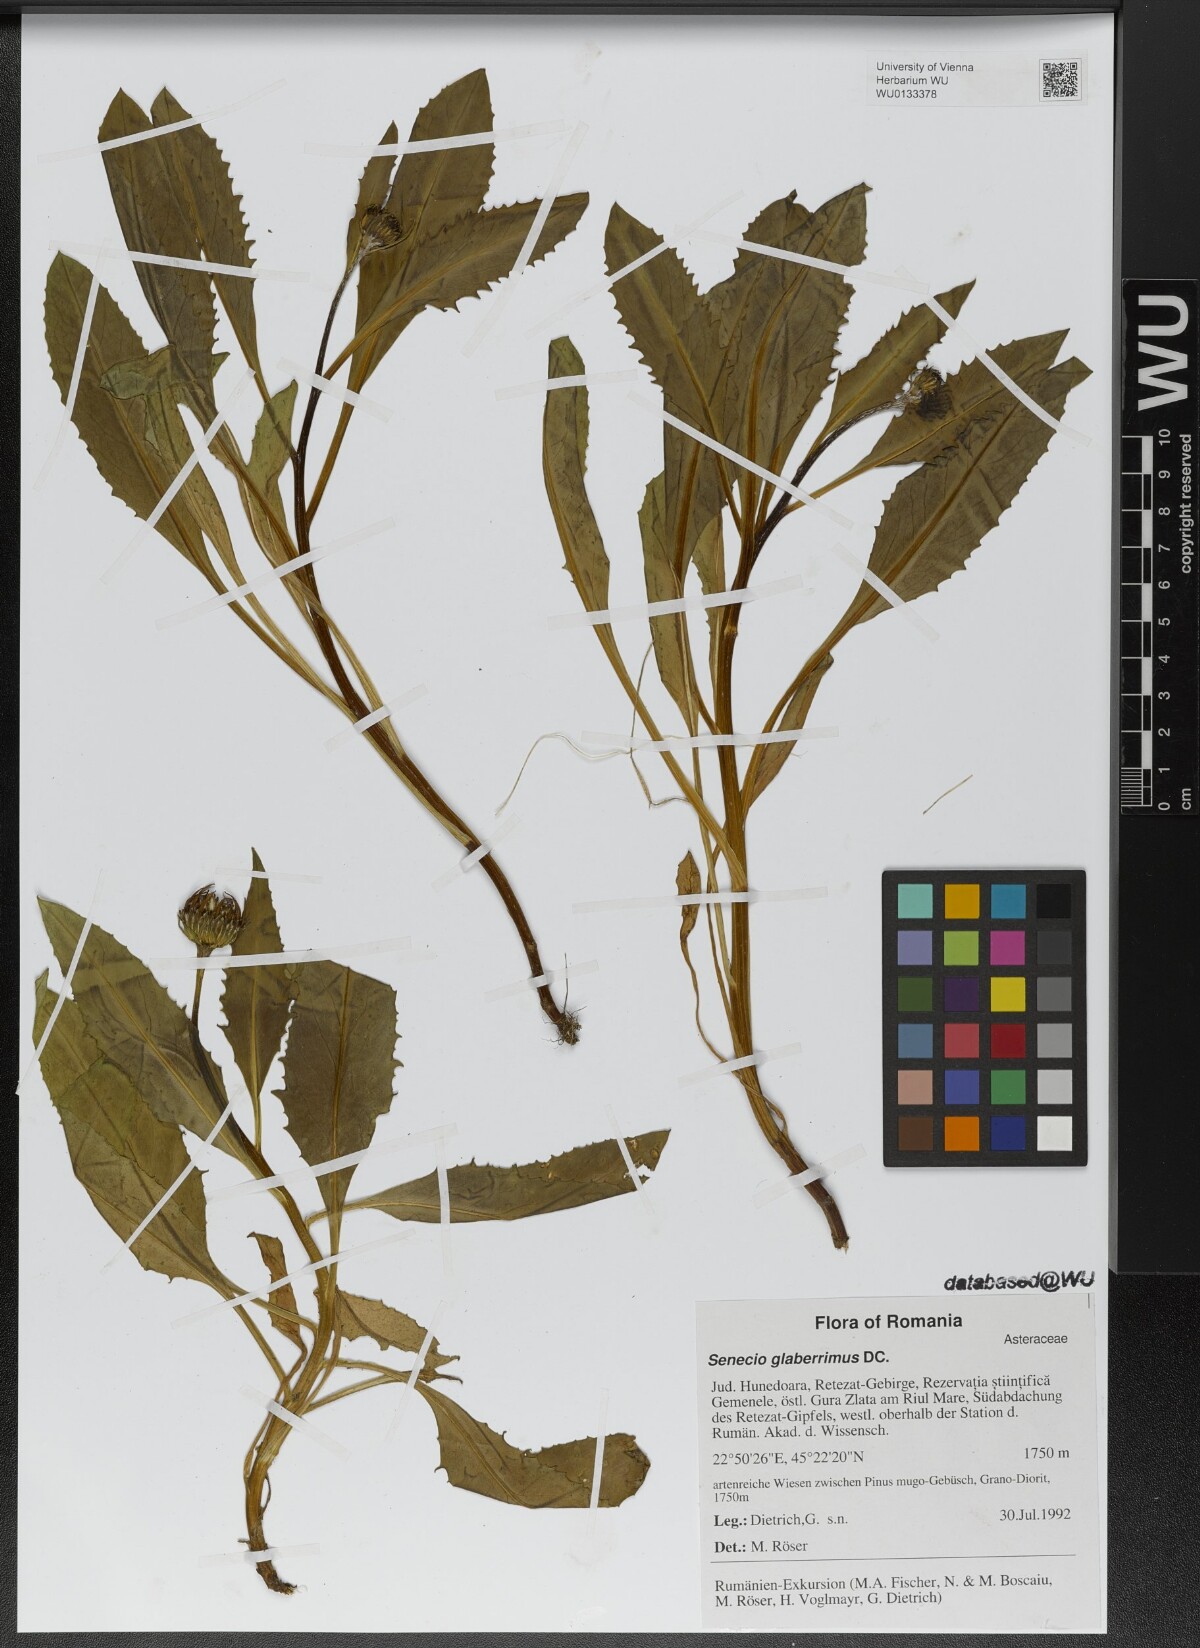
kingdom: Plantae
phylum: Tracheophyta
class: Magnoliopsida
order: Asterales
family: Asteraceae
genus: Senecio
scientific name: Senecio glaberrimus
